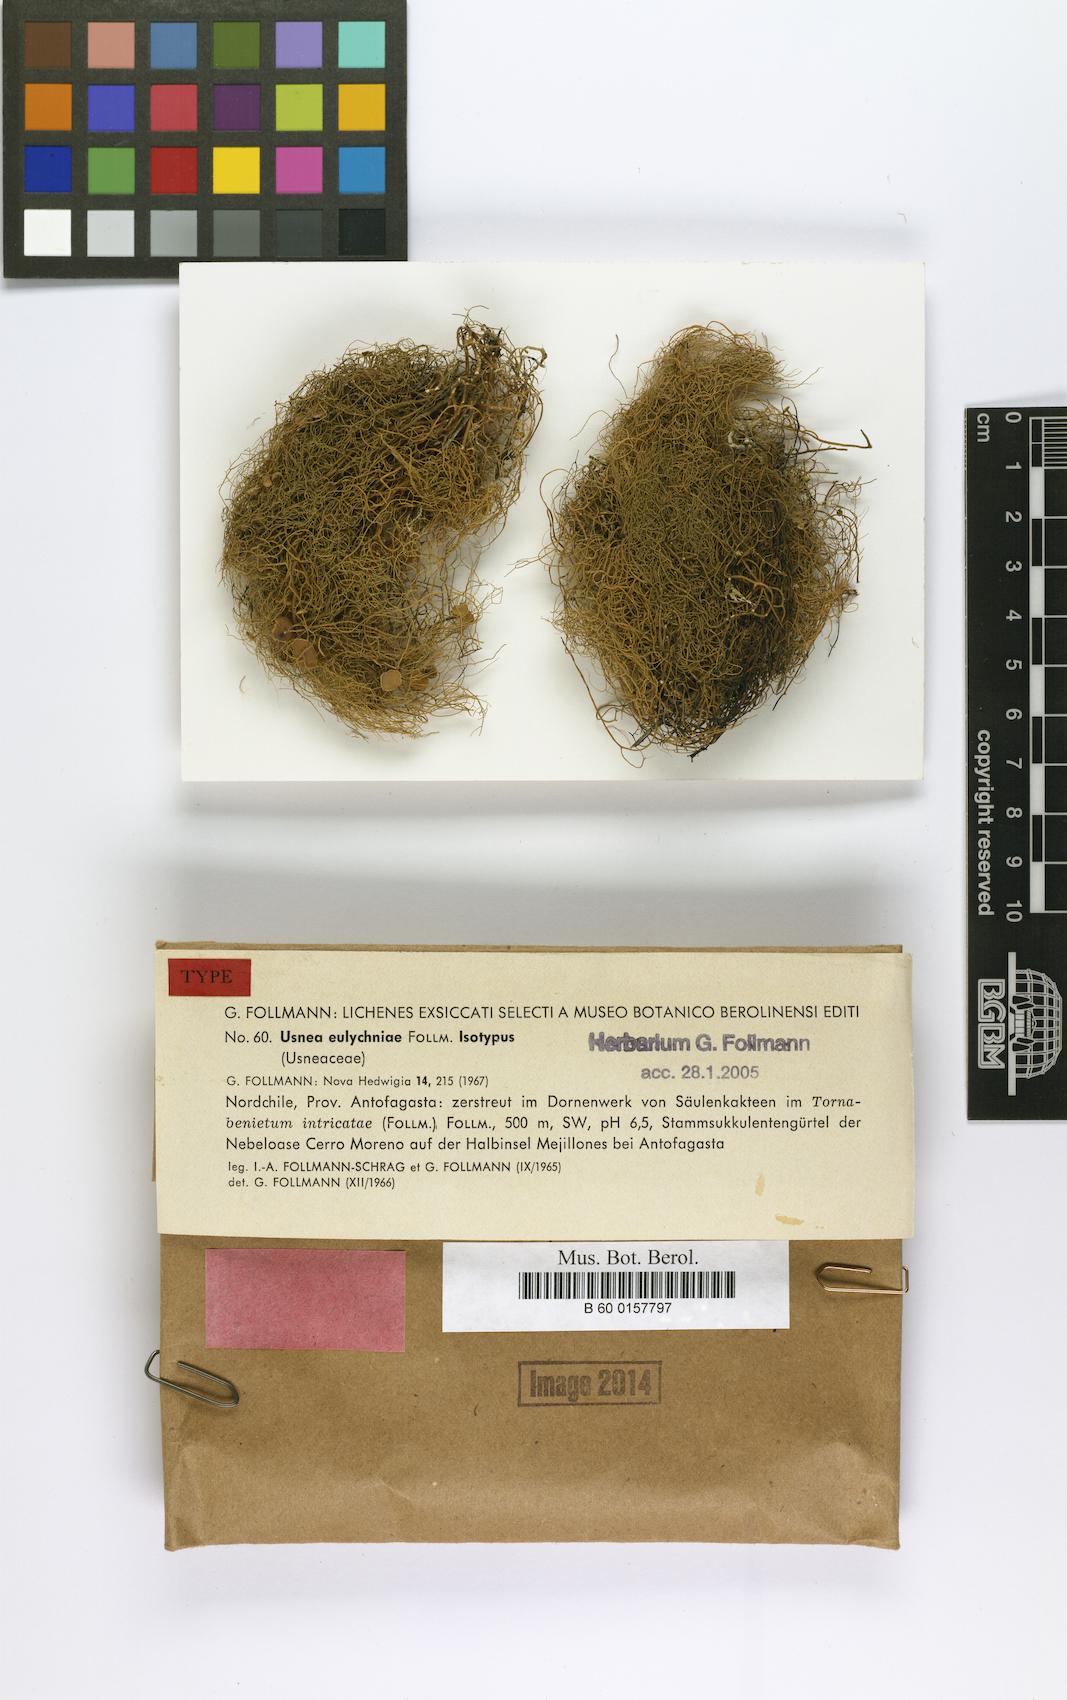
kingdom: Fungi
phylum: Ascomycota
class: Lecanoromycetes
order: Lecanorales
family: Parmeliaceae
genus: Usnea
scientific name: Usnea
